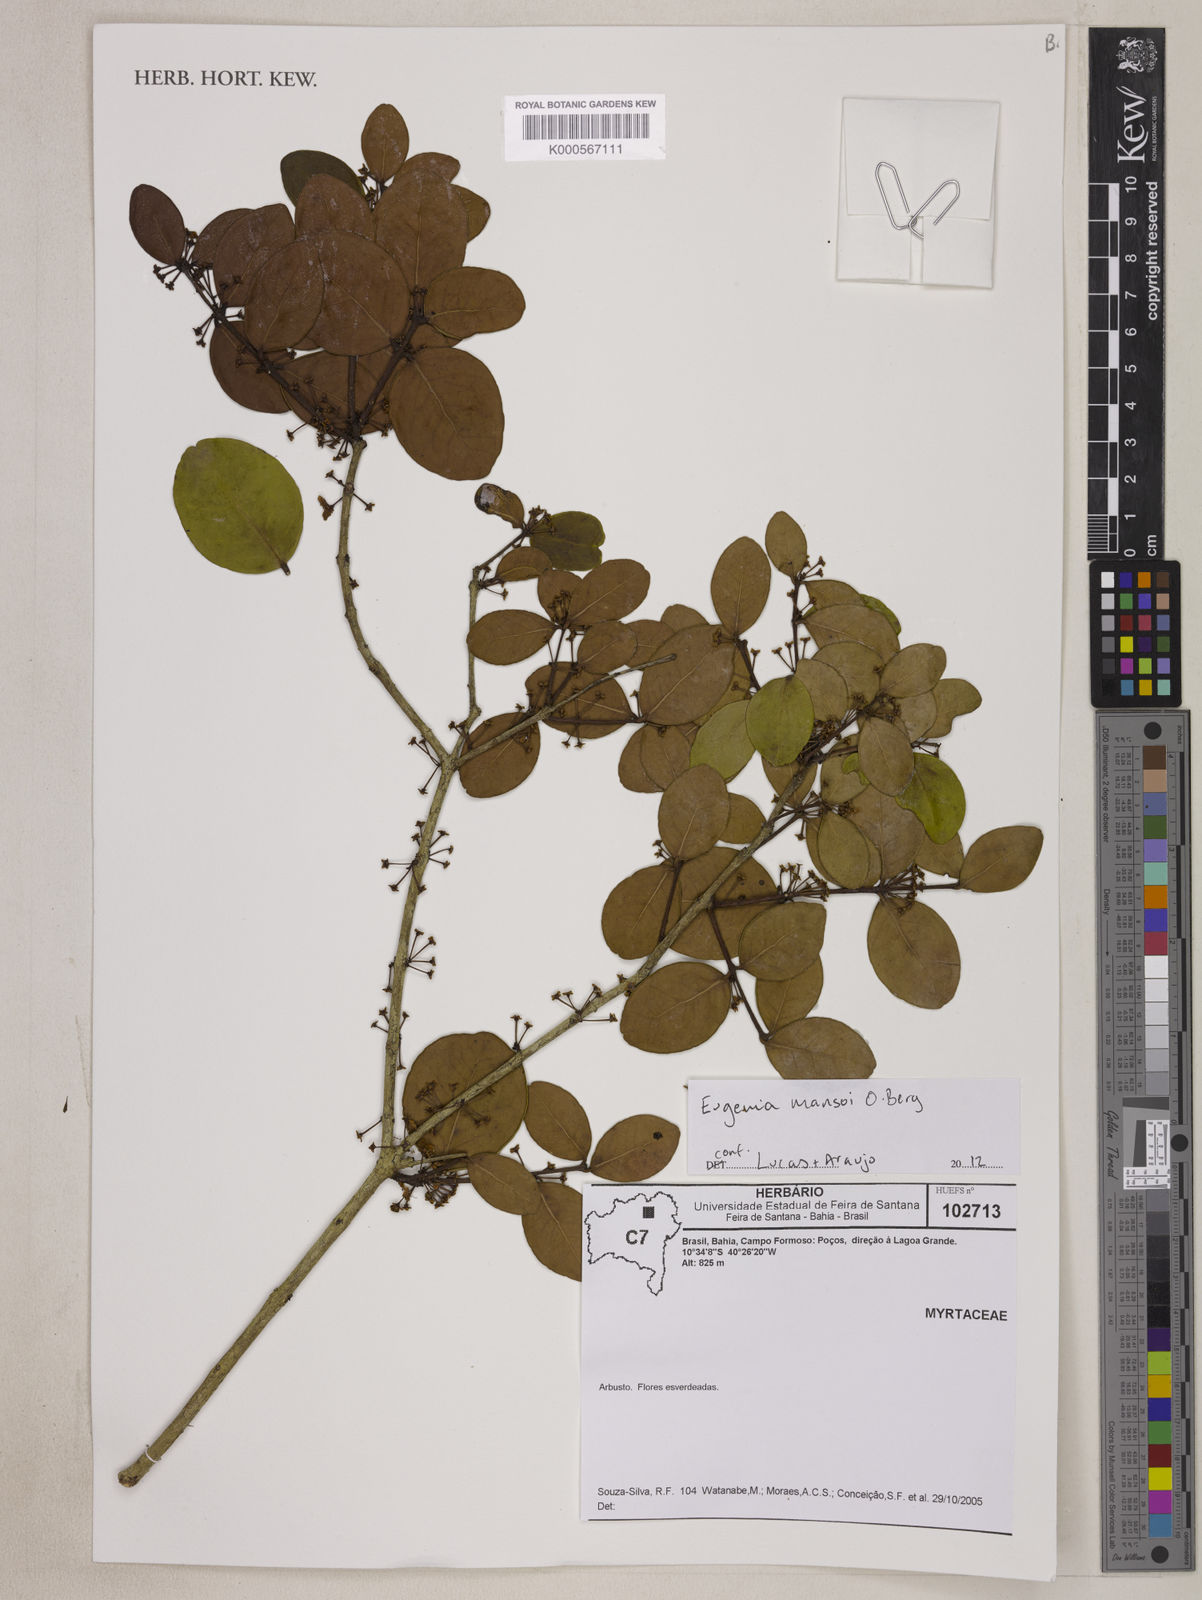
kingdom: Plantae
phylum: Tracheophyta
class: Magnoliopsida
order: Myrtales
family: Myrtaceae
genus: Eugenia
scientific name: Eugenia mansoi
